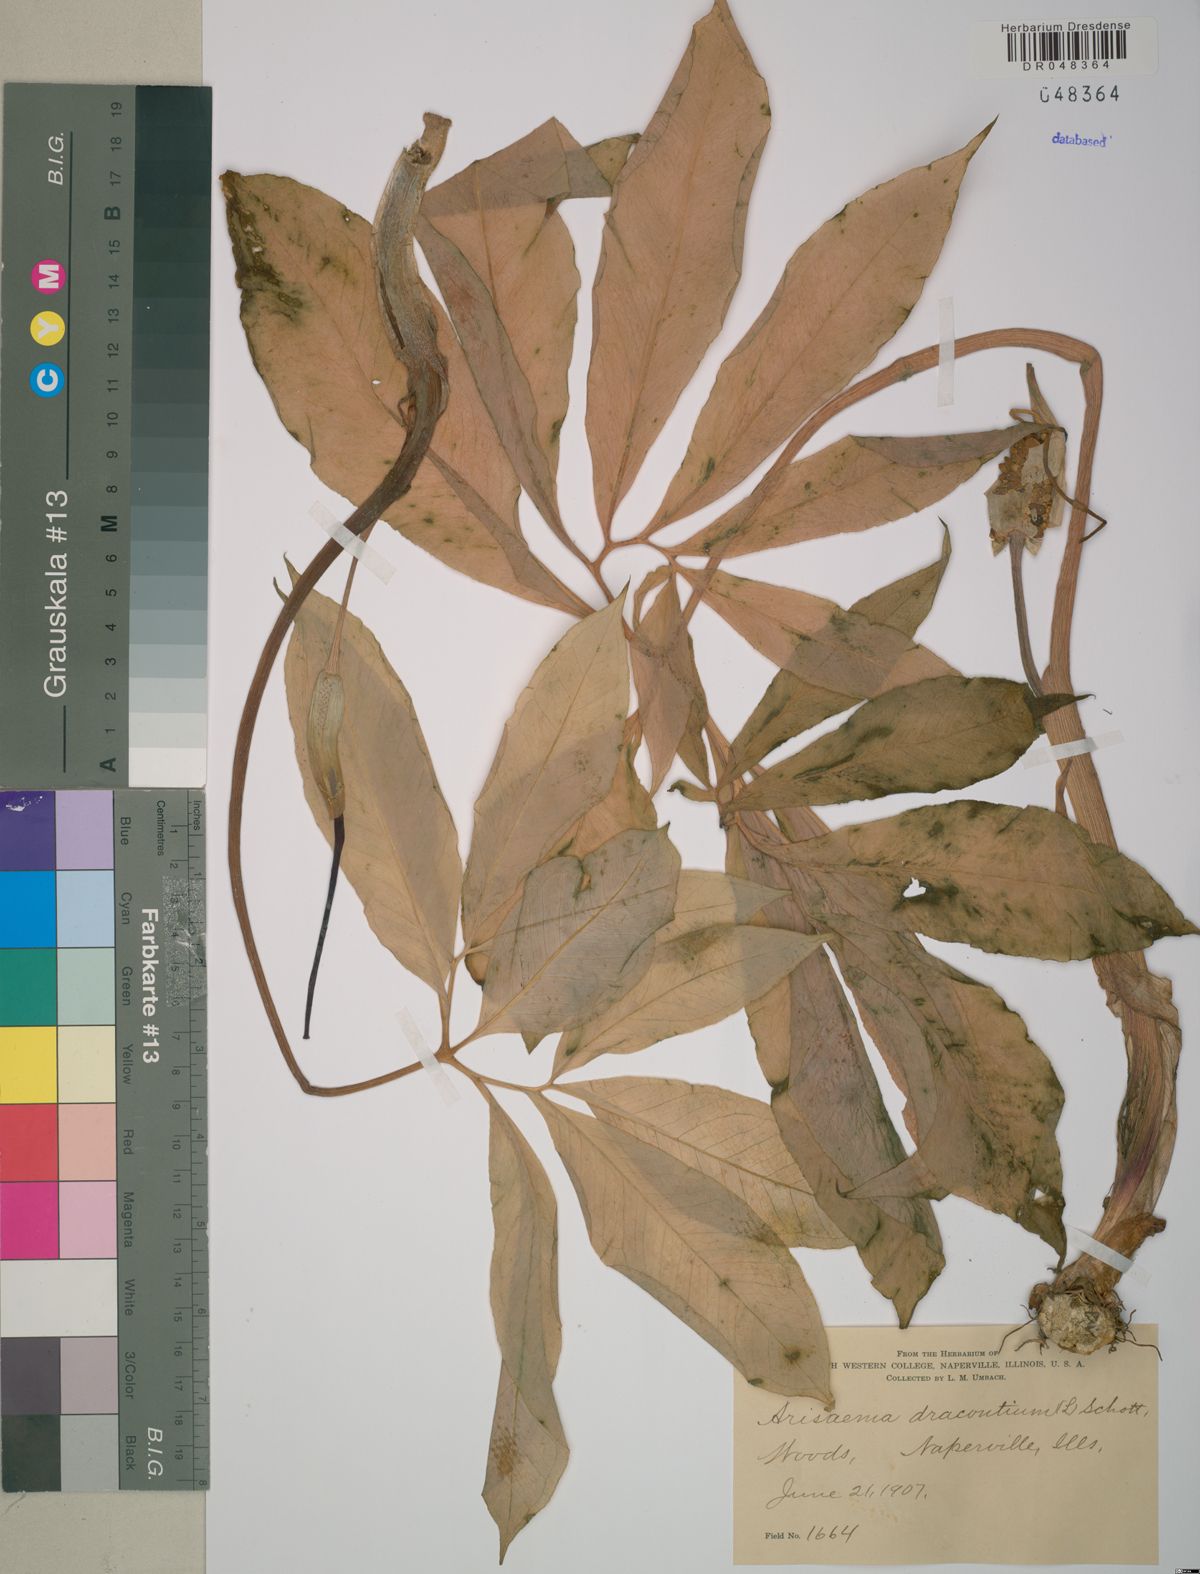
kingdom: Plantae
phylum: Tracheophyta
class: Liliopsida
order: Alismatales
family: Araceae
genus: Arisaema
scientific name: Arisaema dracontium
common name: Dragon-arum
